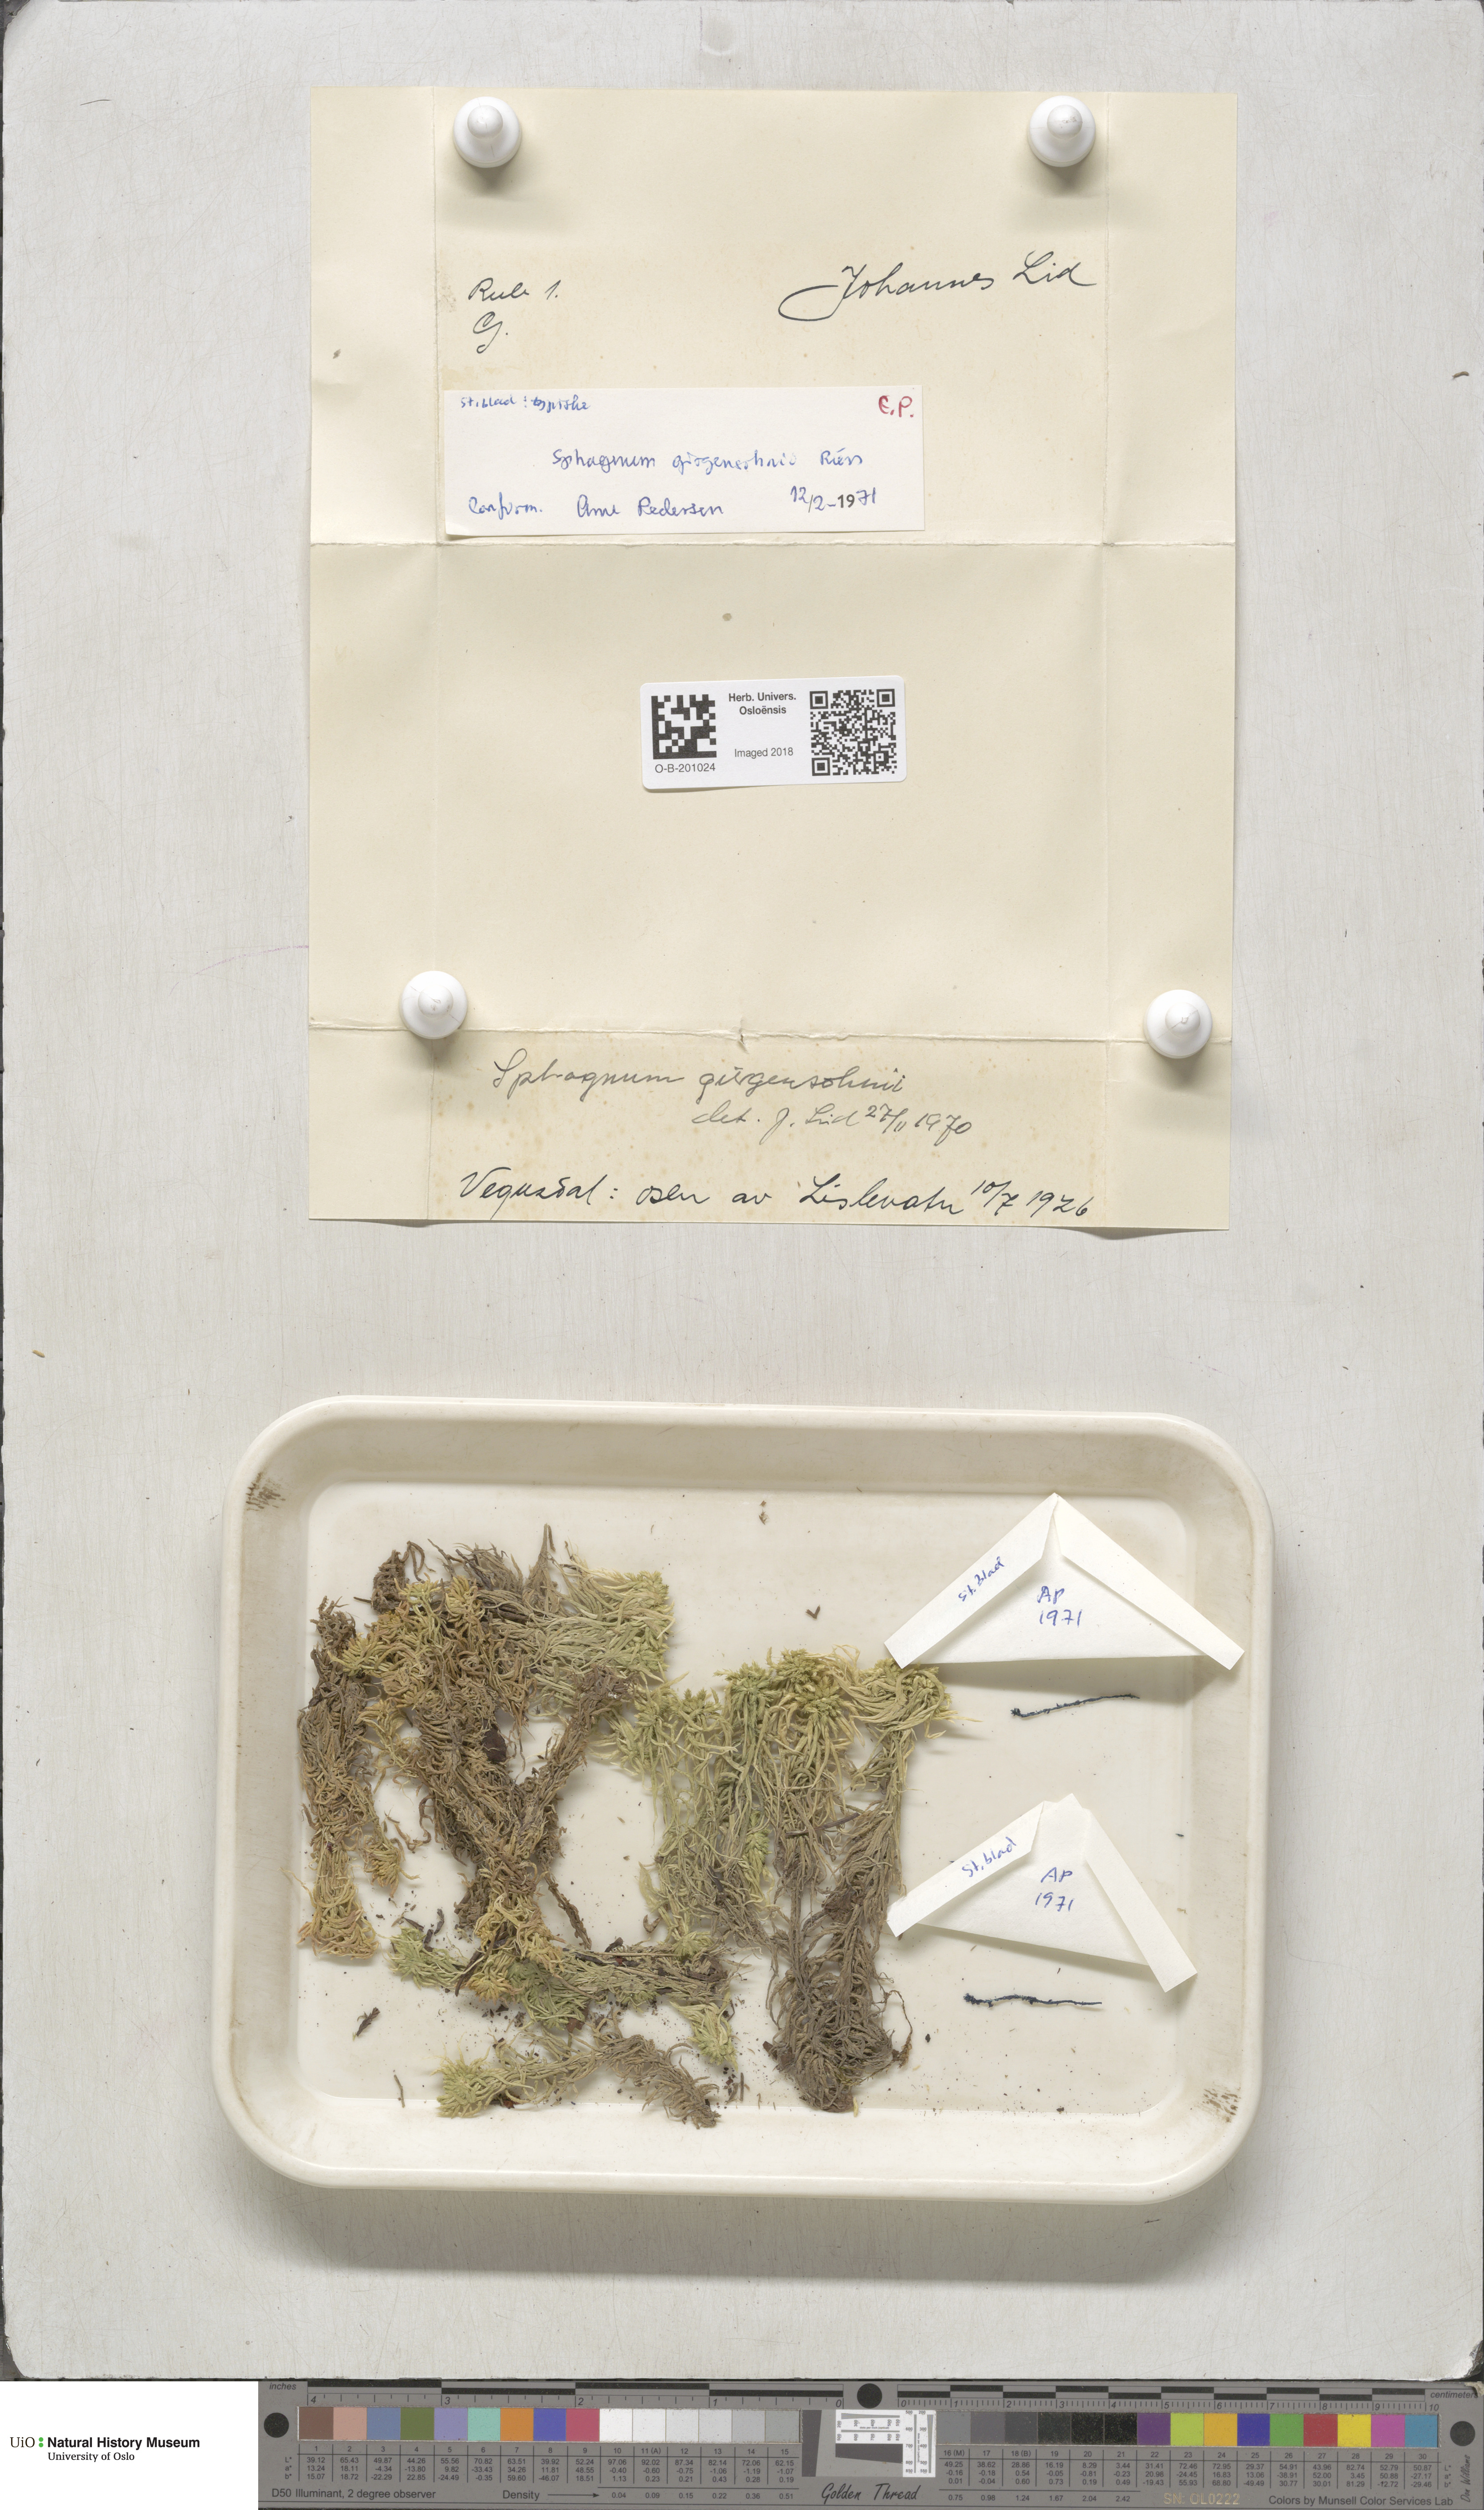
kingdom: Plantae
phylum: Bryophyta
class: Sphagnopsida
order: Sphagnales
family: Sphagnaceae
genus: Sphagnum
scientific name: Sphagnum girgensohnii
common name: Girgensohn's peat moss
